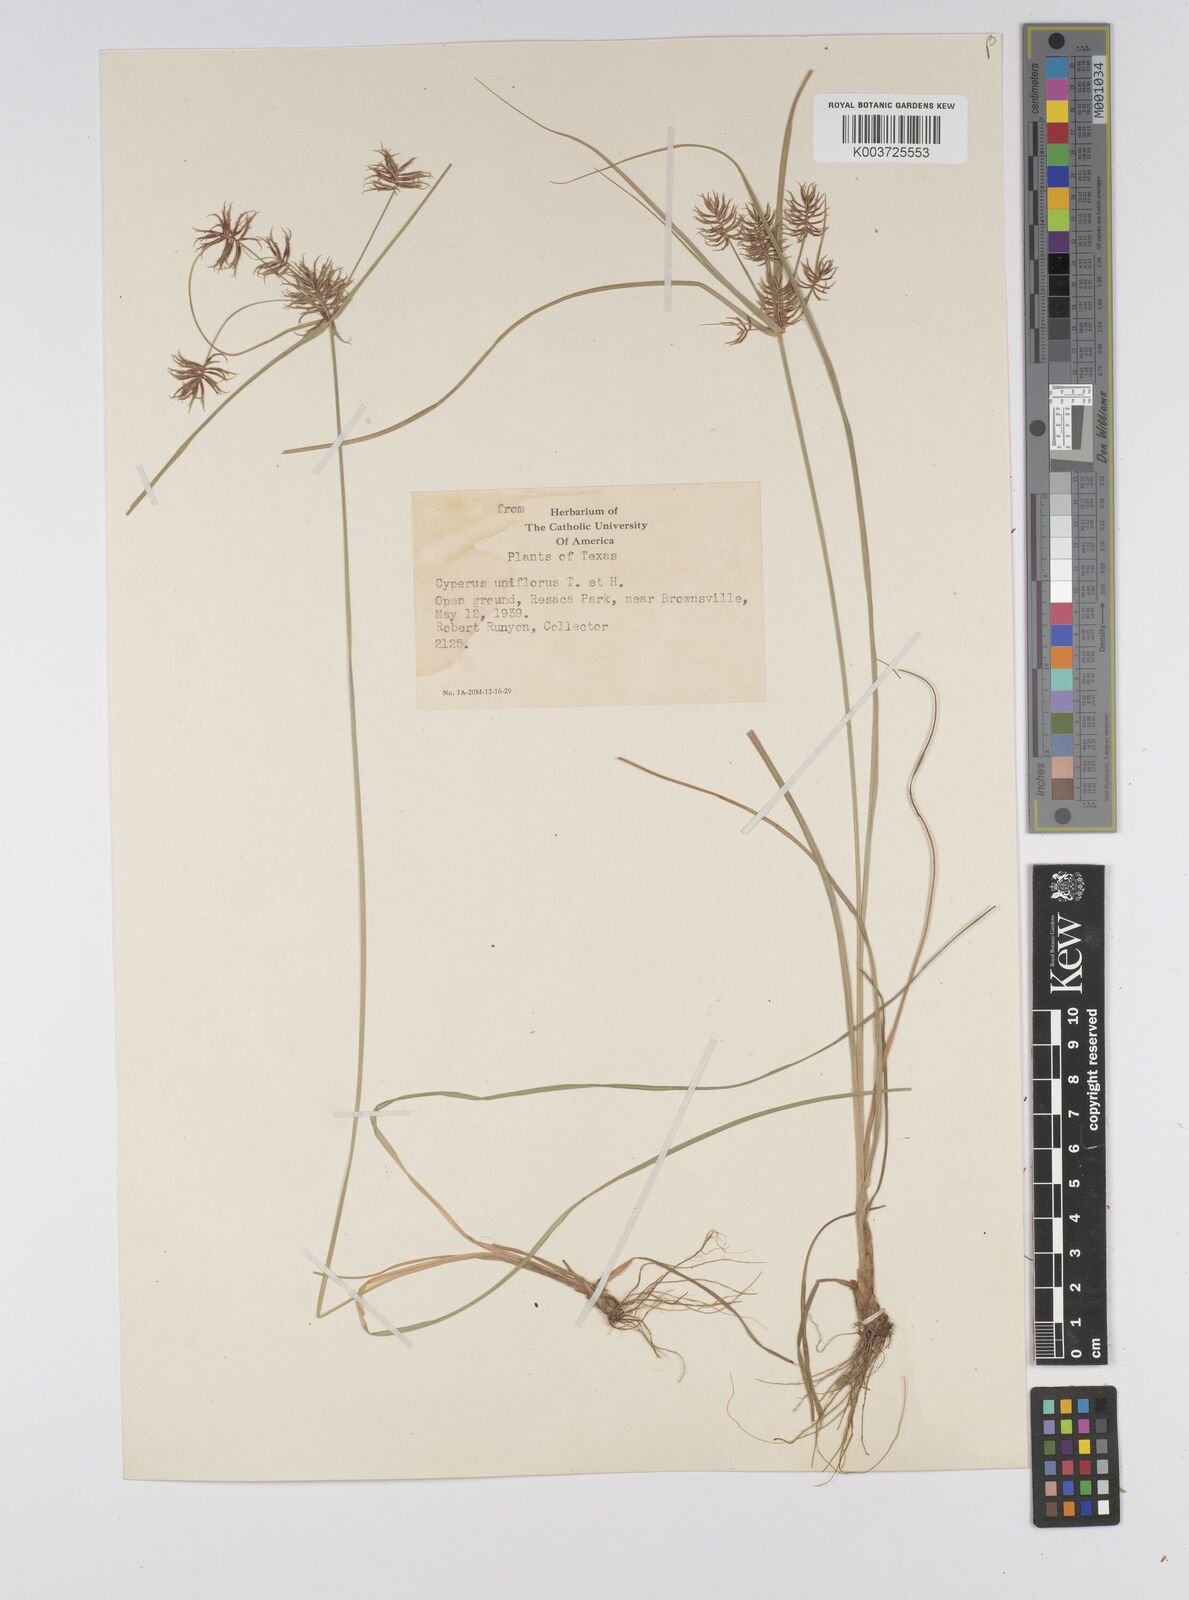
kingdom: Plantae
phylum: Tracheophyta
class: Liliopsida
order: Poales
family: Cyperaceae
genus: Cyperus
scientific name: Cyperus retroflexus
